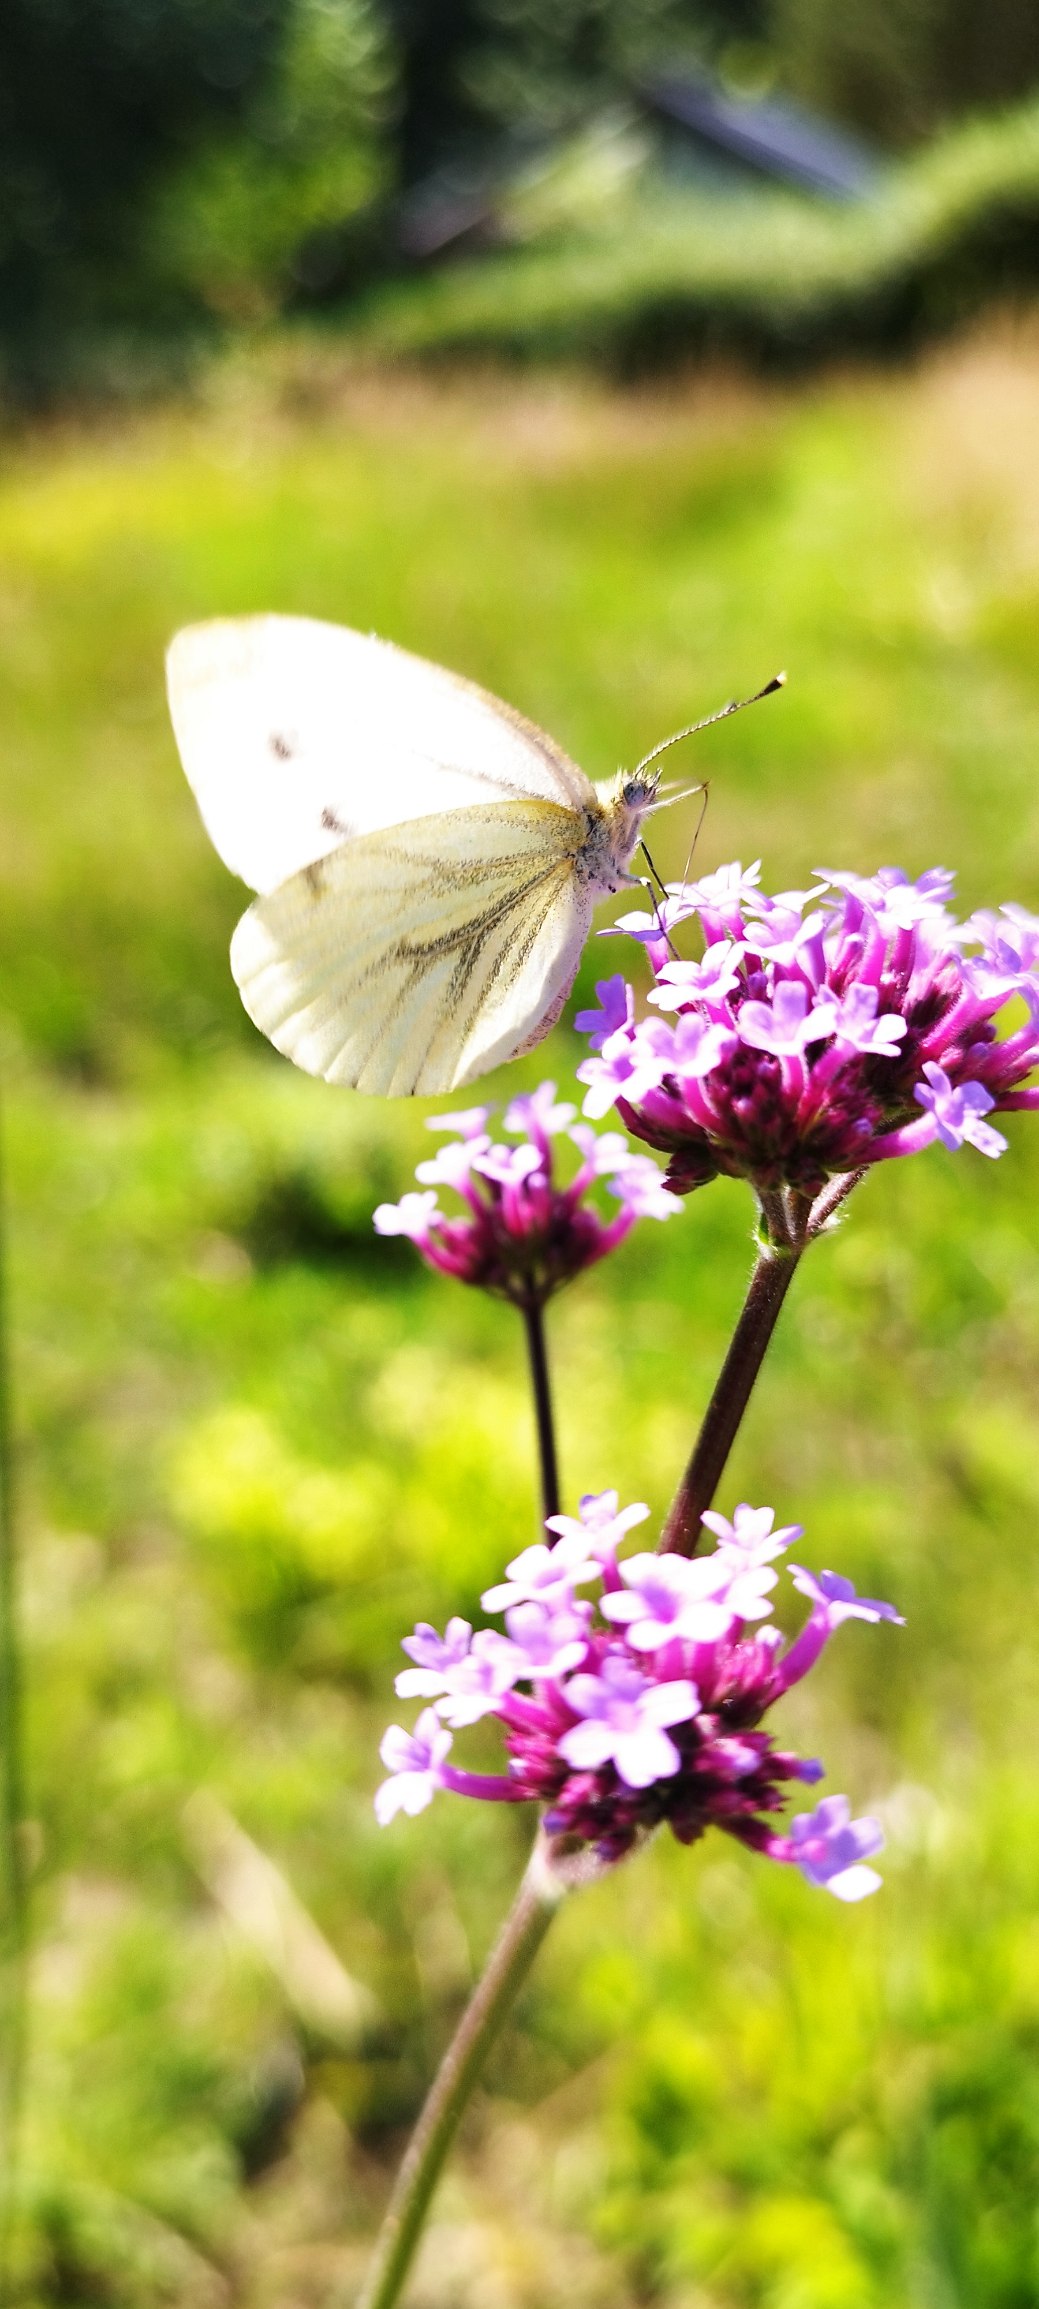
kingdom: Animalia
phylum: Arthropoda
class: Insecta
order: Lepidoptera
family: Pieridae
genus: Pieris
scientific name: Pieris napi
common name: Grønåret kålsommerfugl
